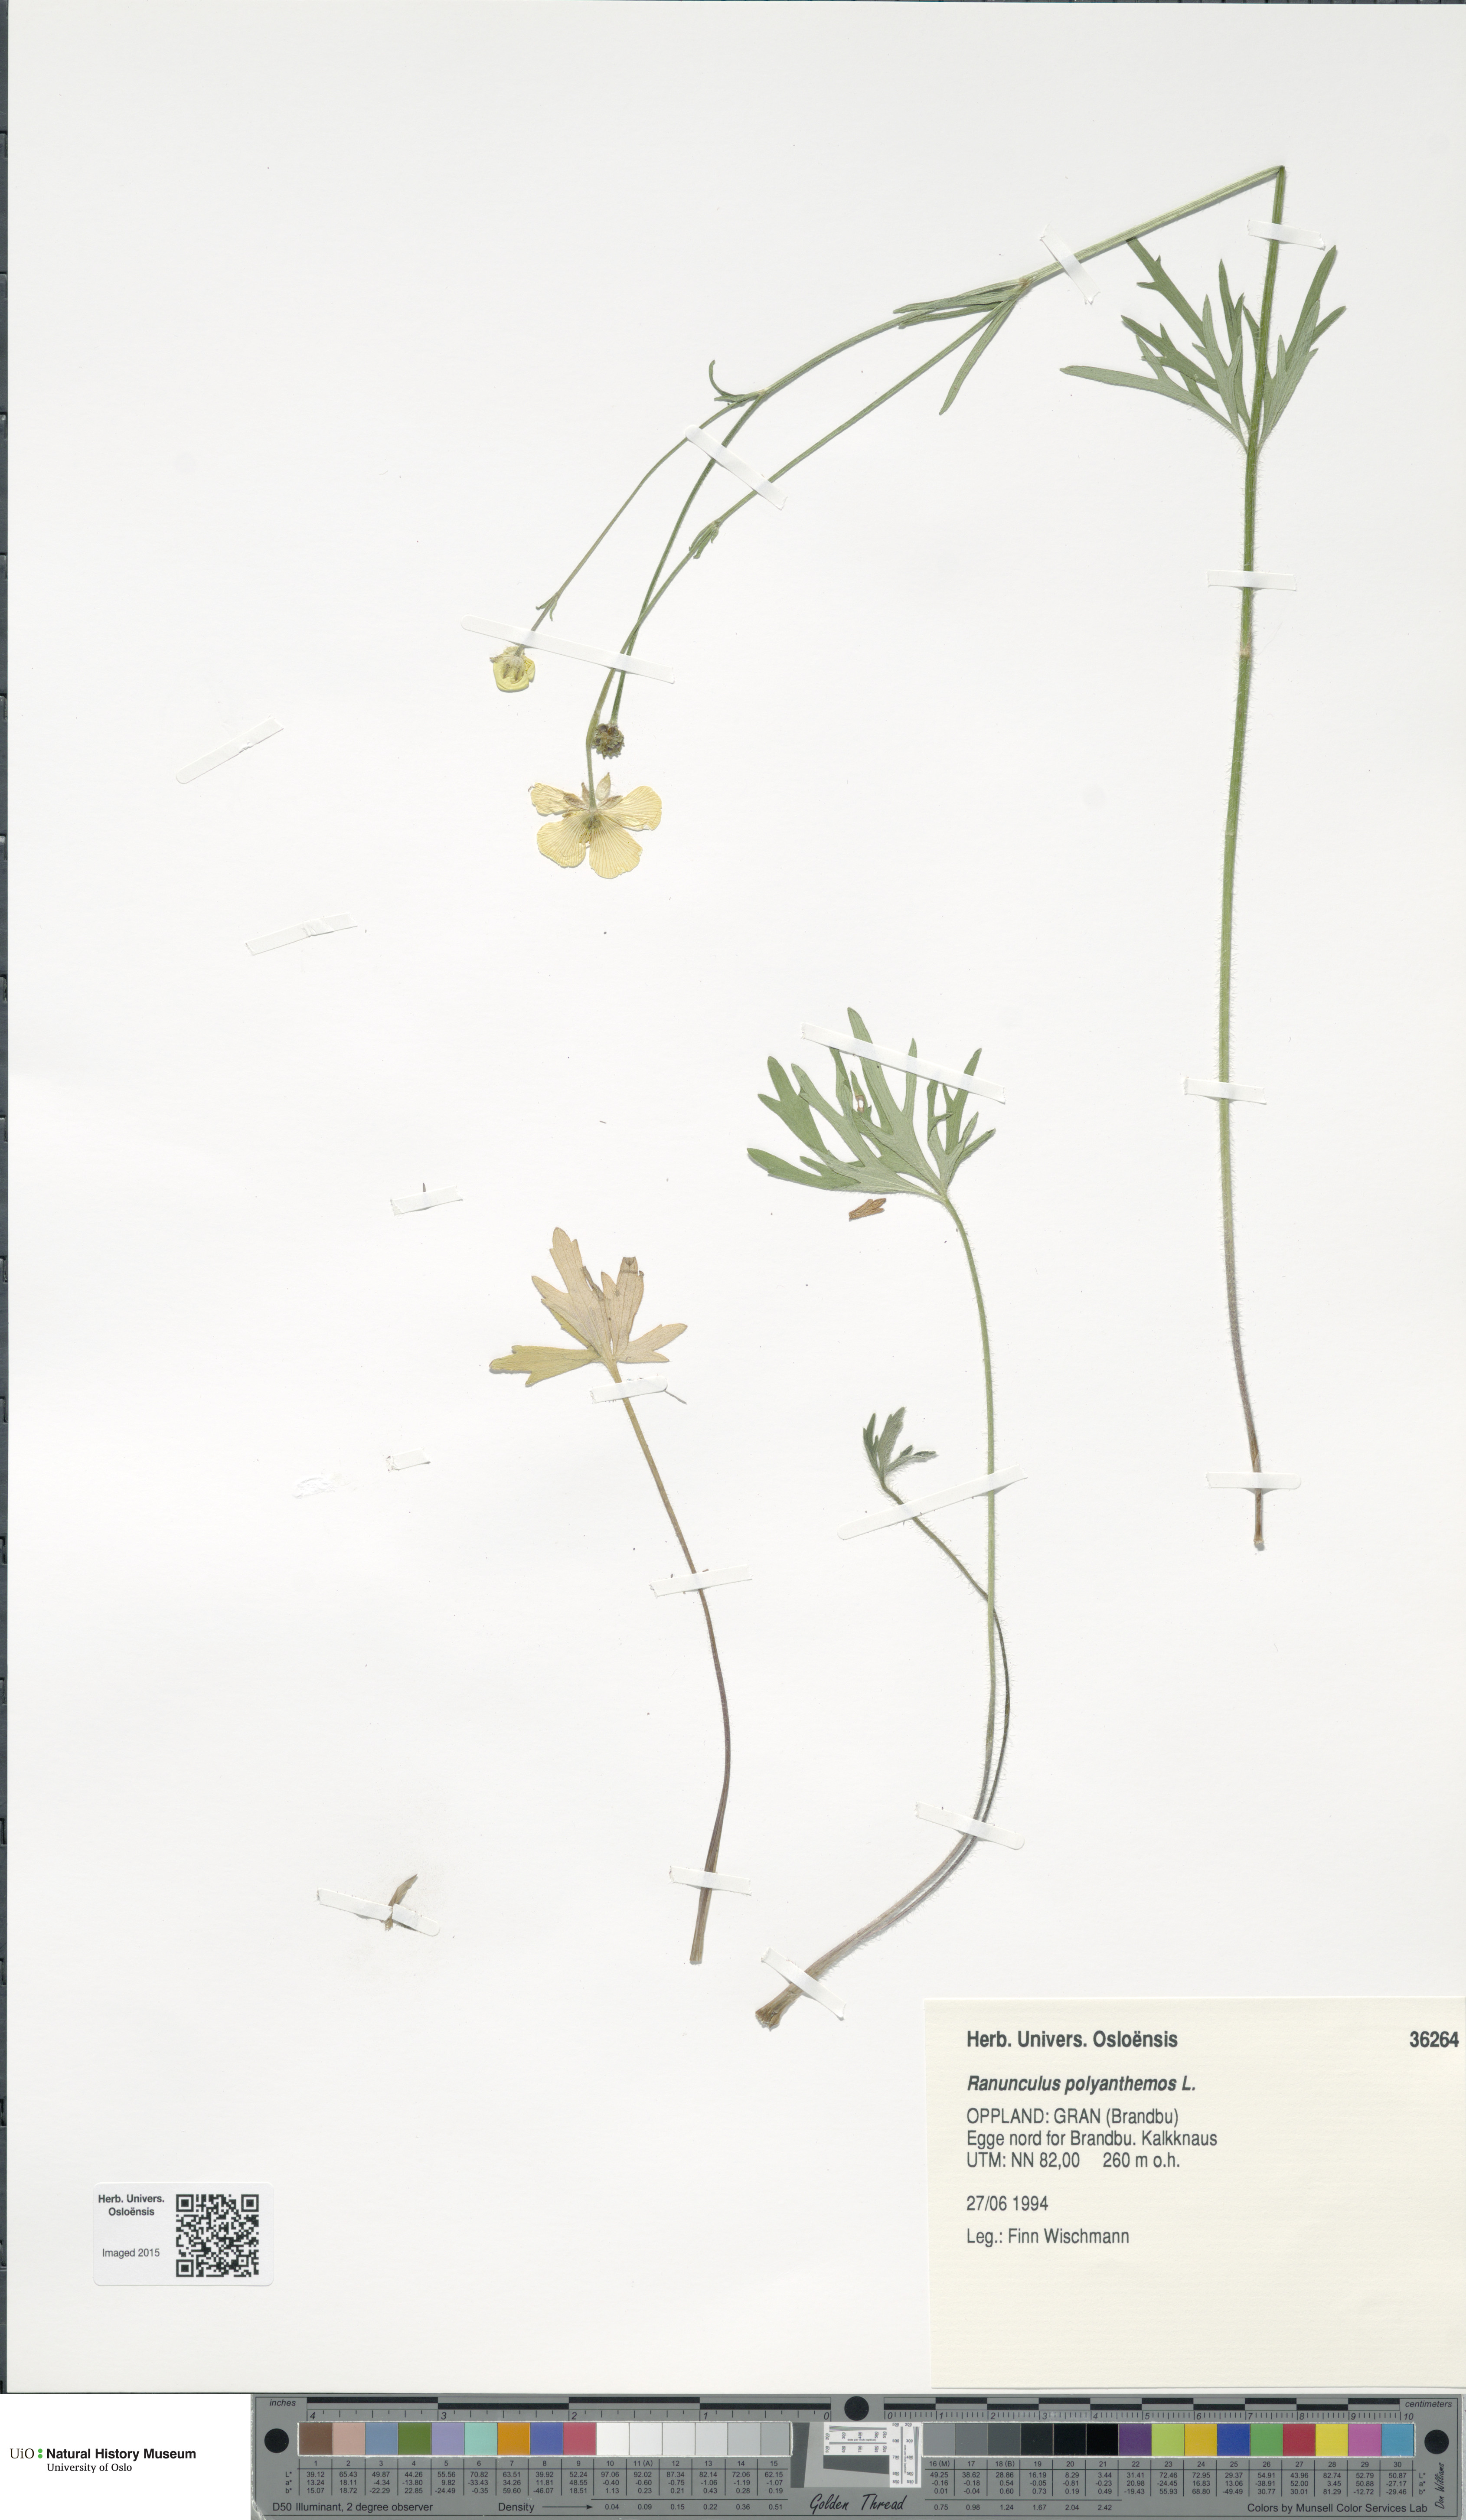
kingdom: Plantae
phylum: Tracheophyta
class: Magnoliopsida
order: Ranunculales
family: Ranunculaceae
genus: Ranunculus
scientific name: Ranunculus polyanthemos
